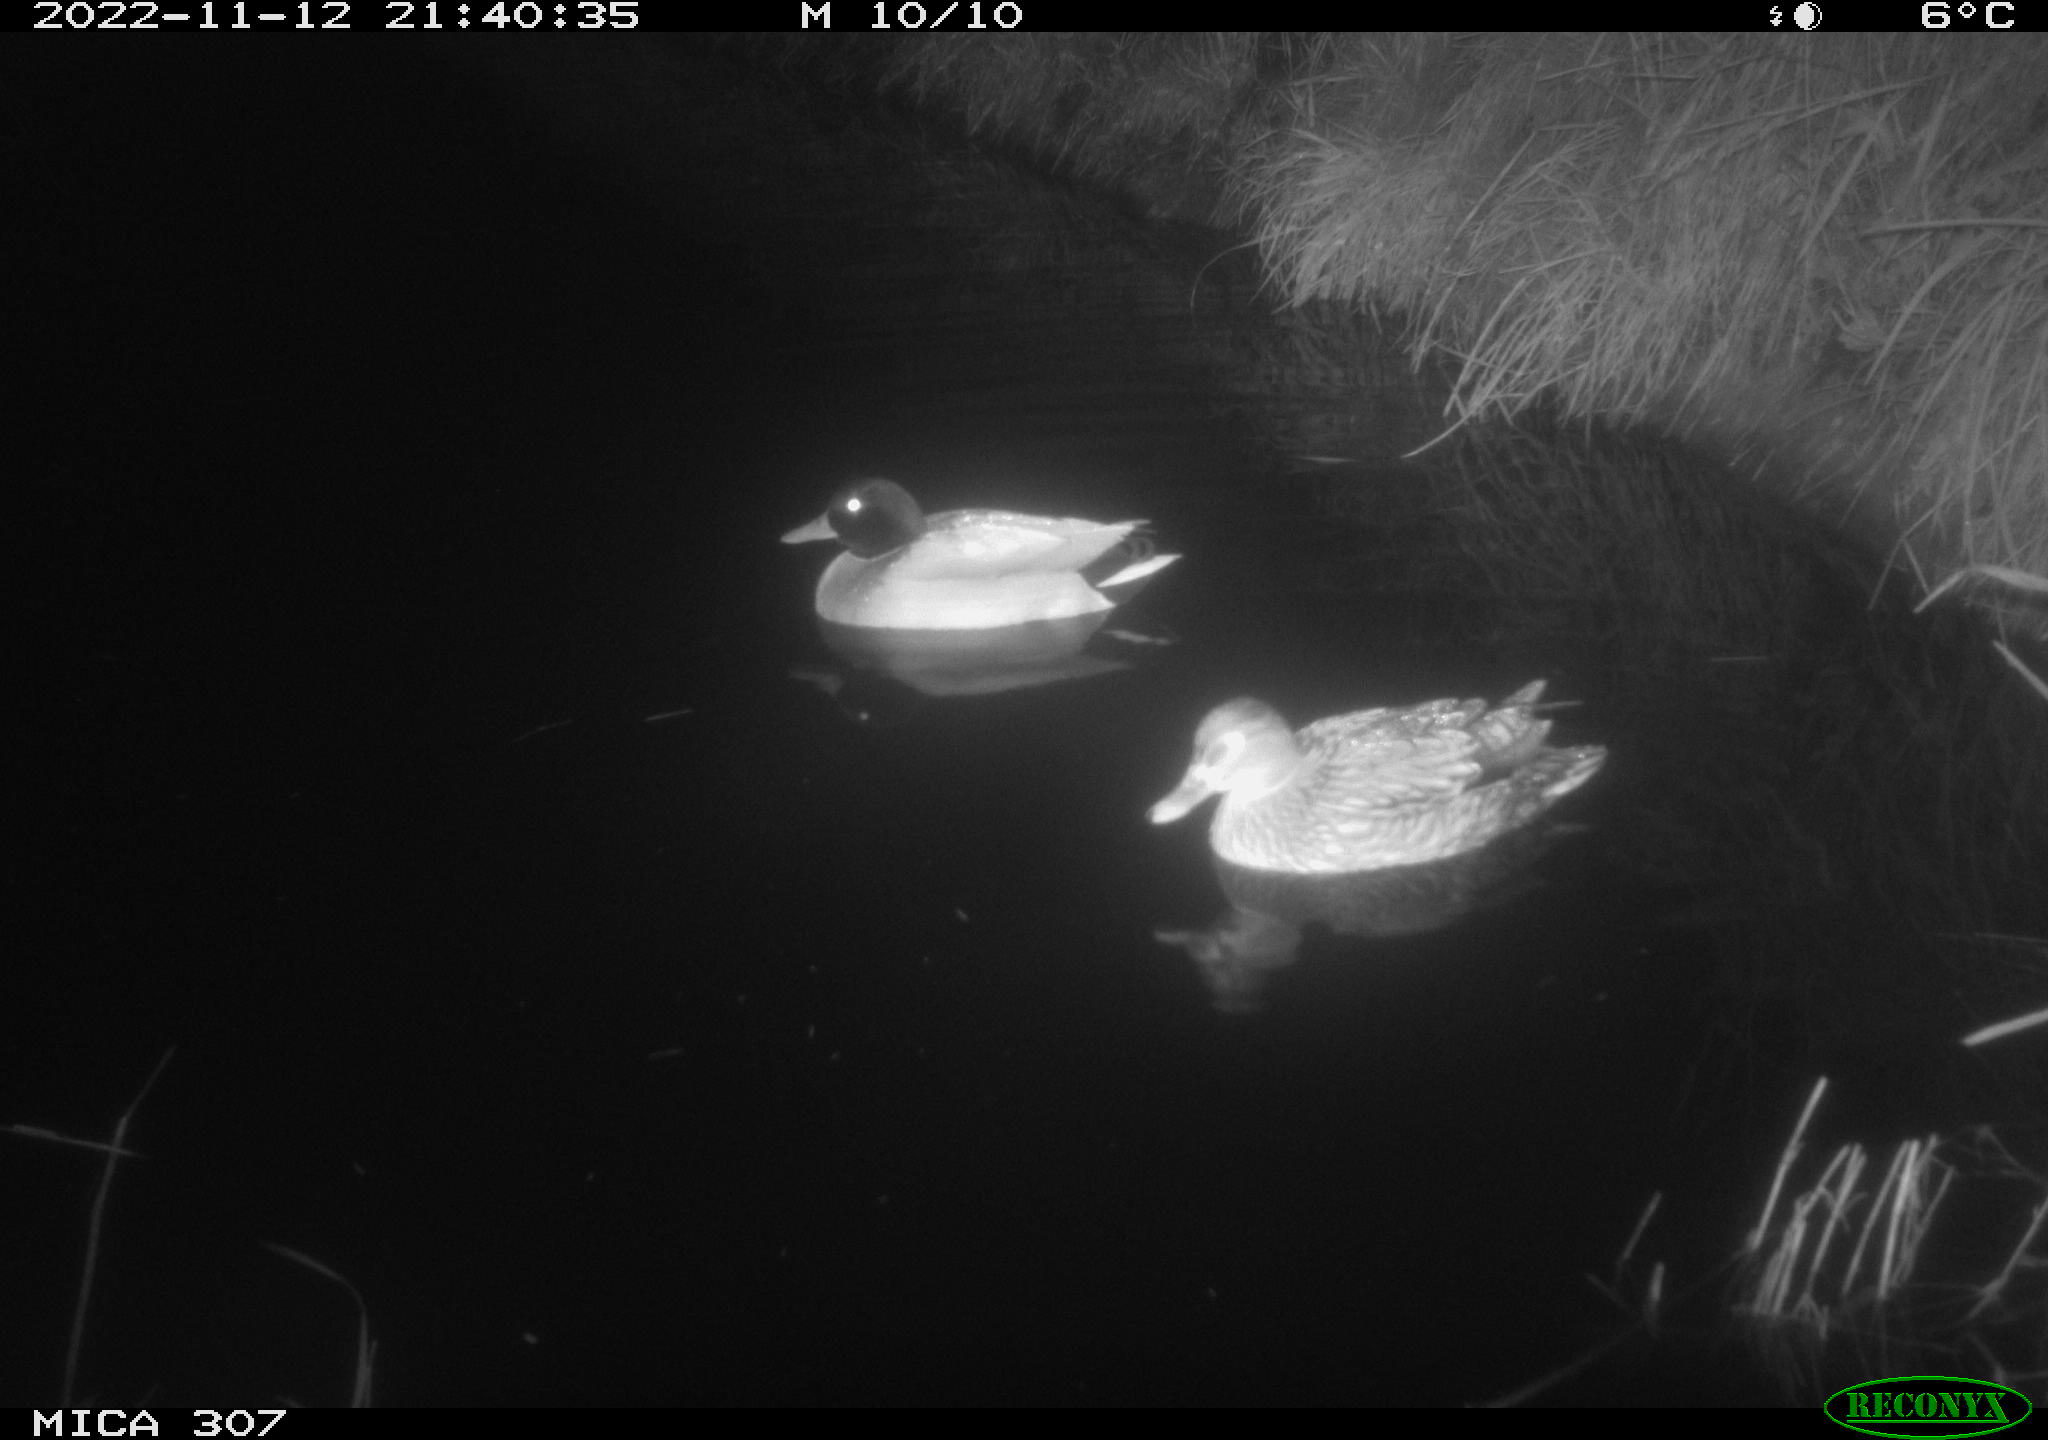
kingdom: Animalia
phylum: Chordata
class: Aves
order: Anseriformes
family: Anatidae
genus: Anas
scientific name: Anas
